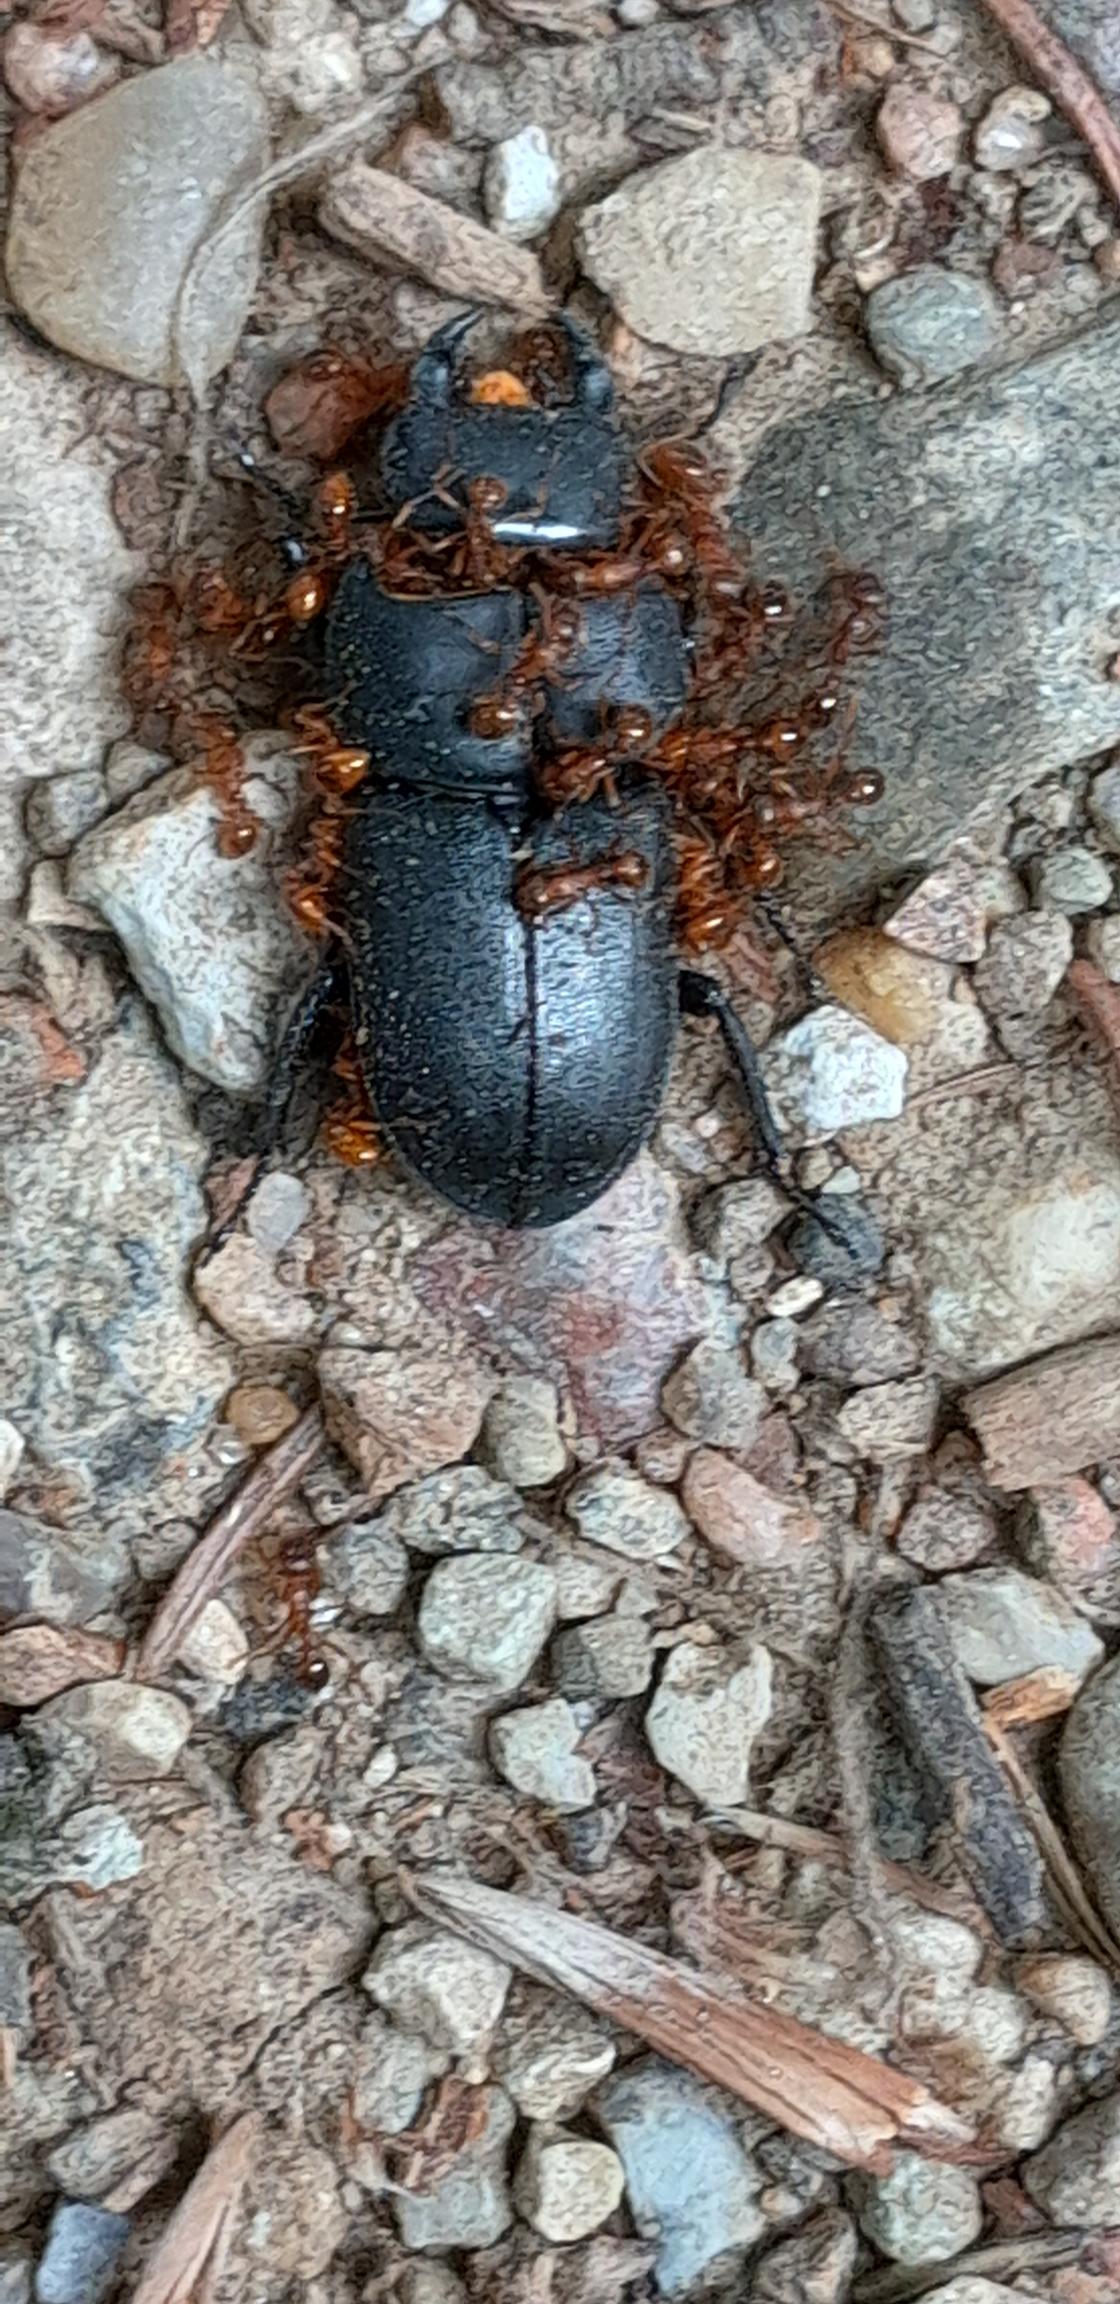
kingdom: Animalia
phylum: Arthropoda
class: Insecta
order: Coleoptera
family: Lucanidae
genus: Dorcus
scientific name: Dorcus parallelipipedus
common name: Bøghjort
